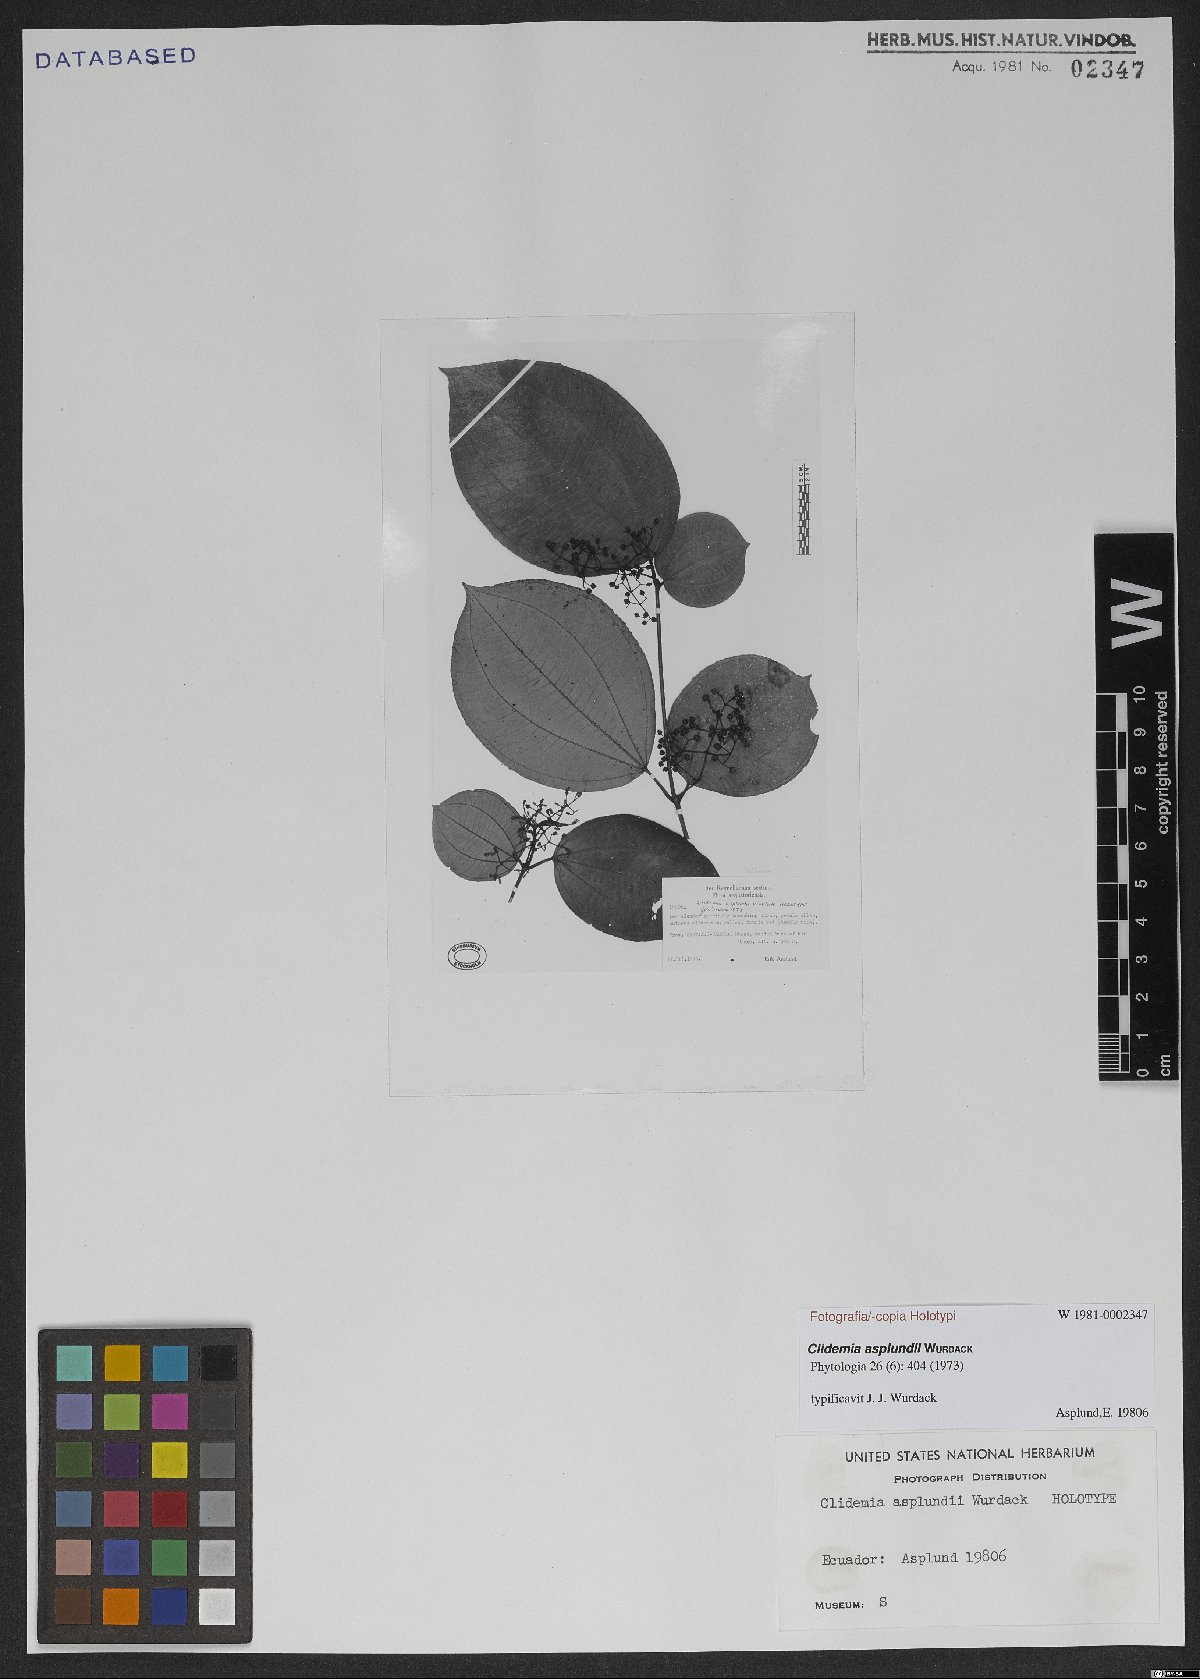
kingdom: Plantae
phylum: Tracheophyta
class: Magnoliopsida
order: Myrtales
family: Melastomataceae
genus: Miconia
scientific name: Miconia erikasplundii
